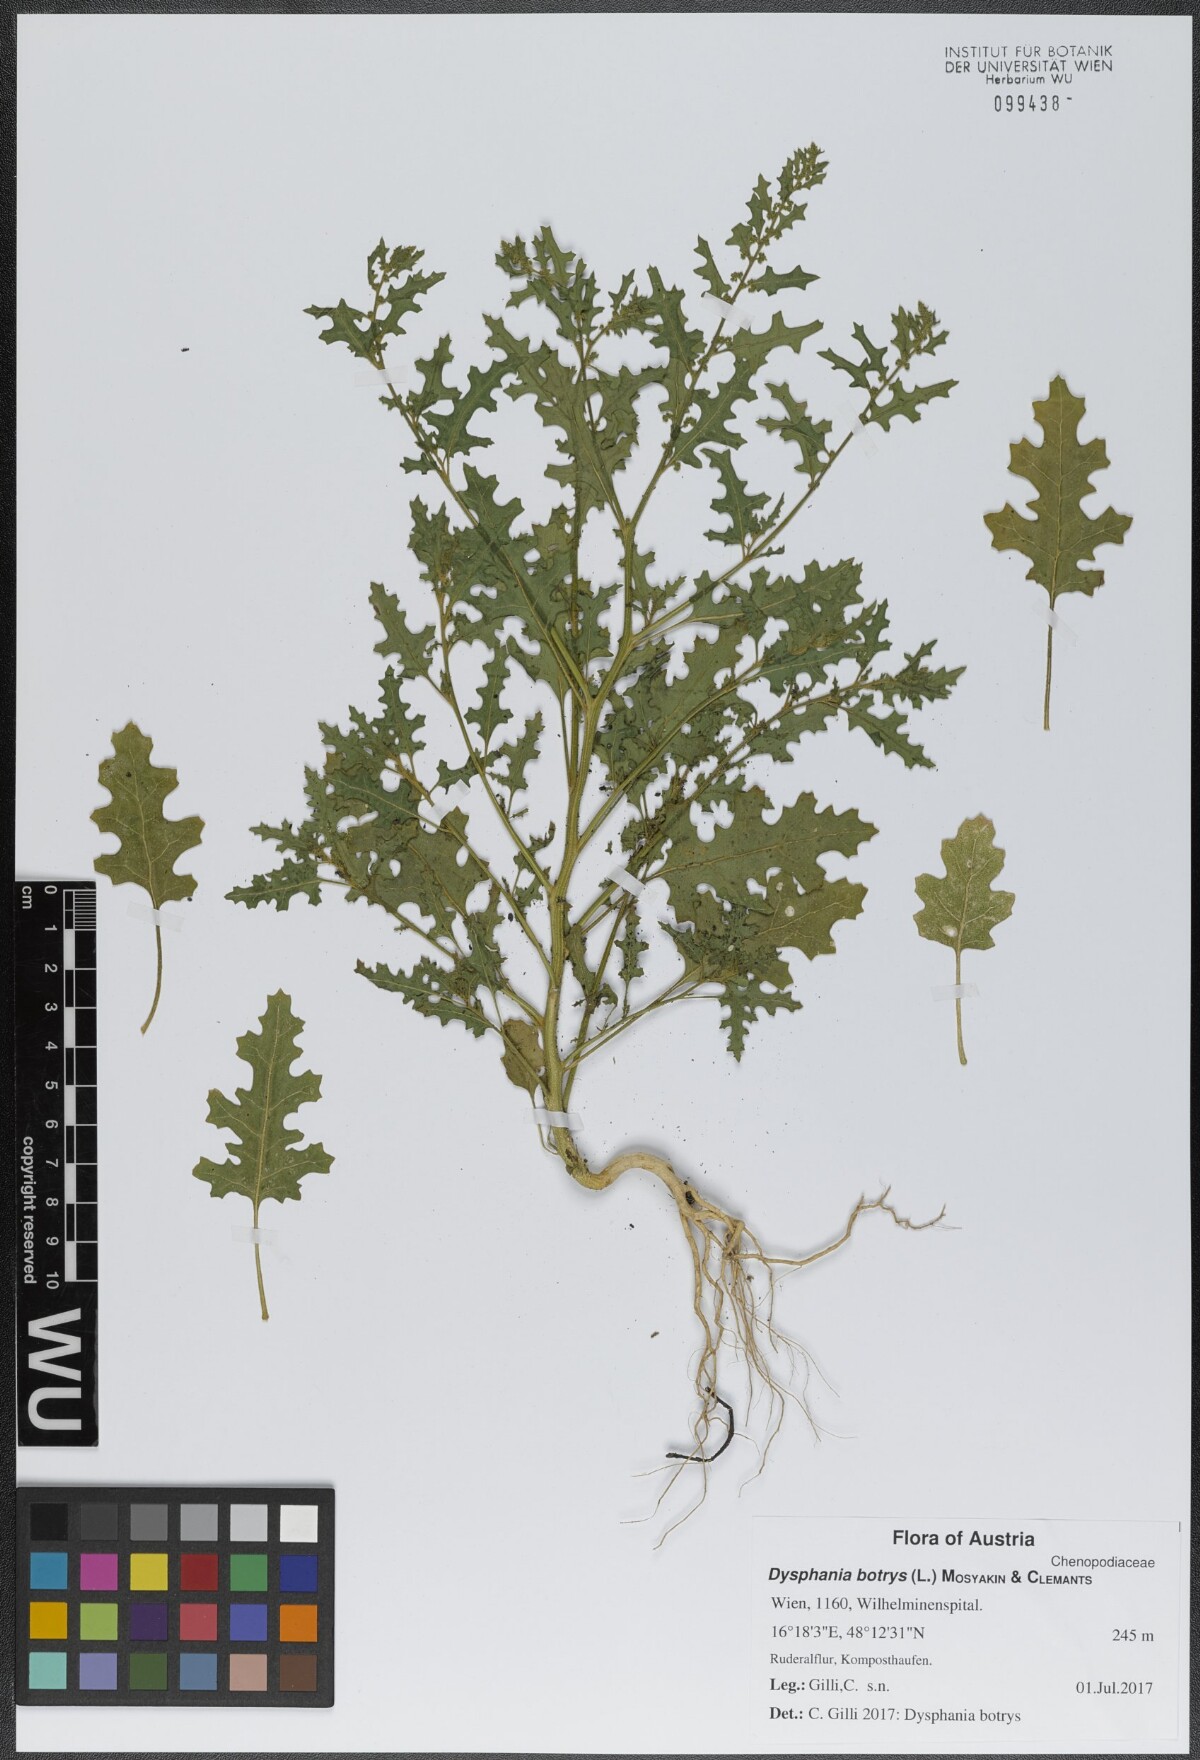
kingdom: Plantae
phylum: Tracheophyta
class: Magnoliopsida
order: Caryophyllales
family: Amaranthaceae
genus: Dysphania
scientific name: Dysphania botrys
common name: Feather-geranium
